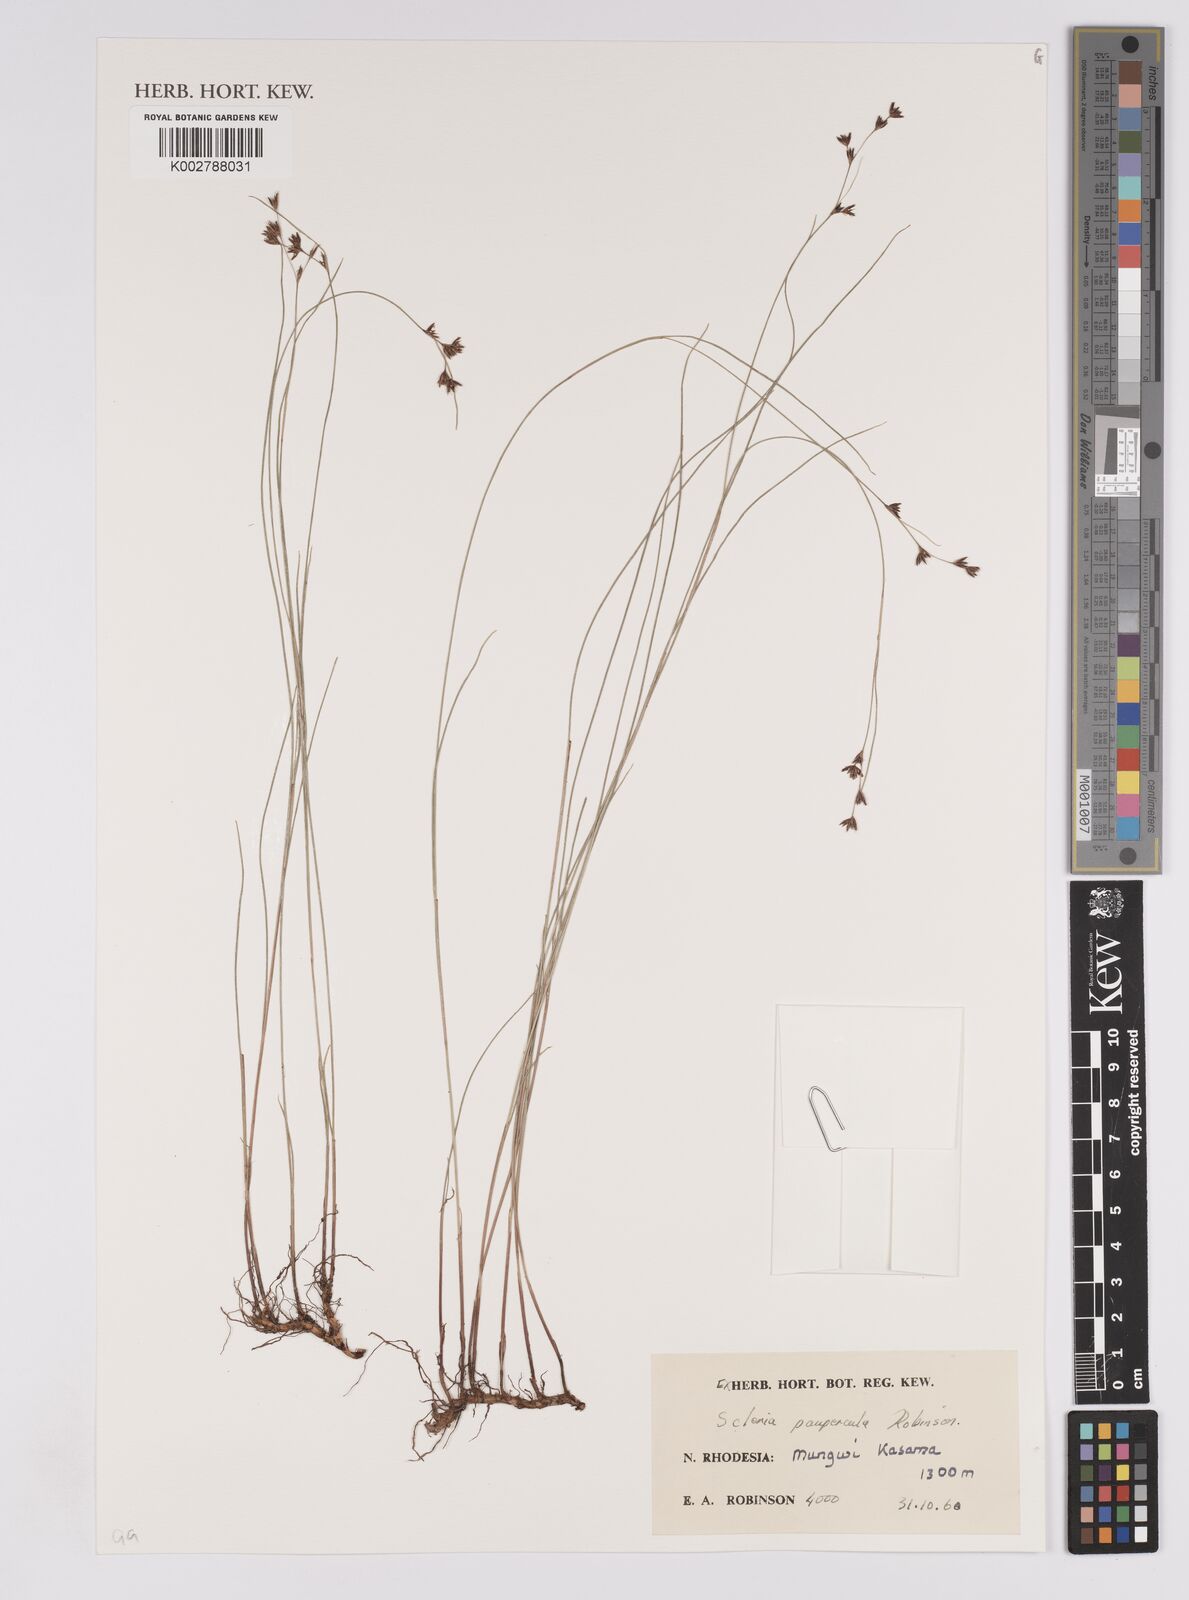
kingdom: Plantae
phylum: Tracheophyta
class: Liliopsida
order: Poales
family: Cyperaceae
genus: Scleria
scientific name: Scleria paupercula
